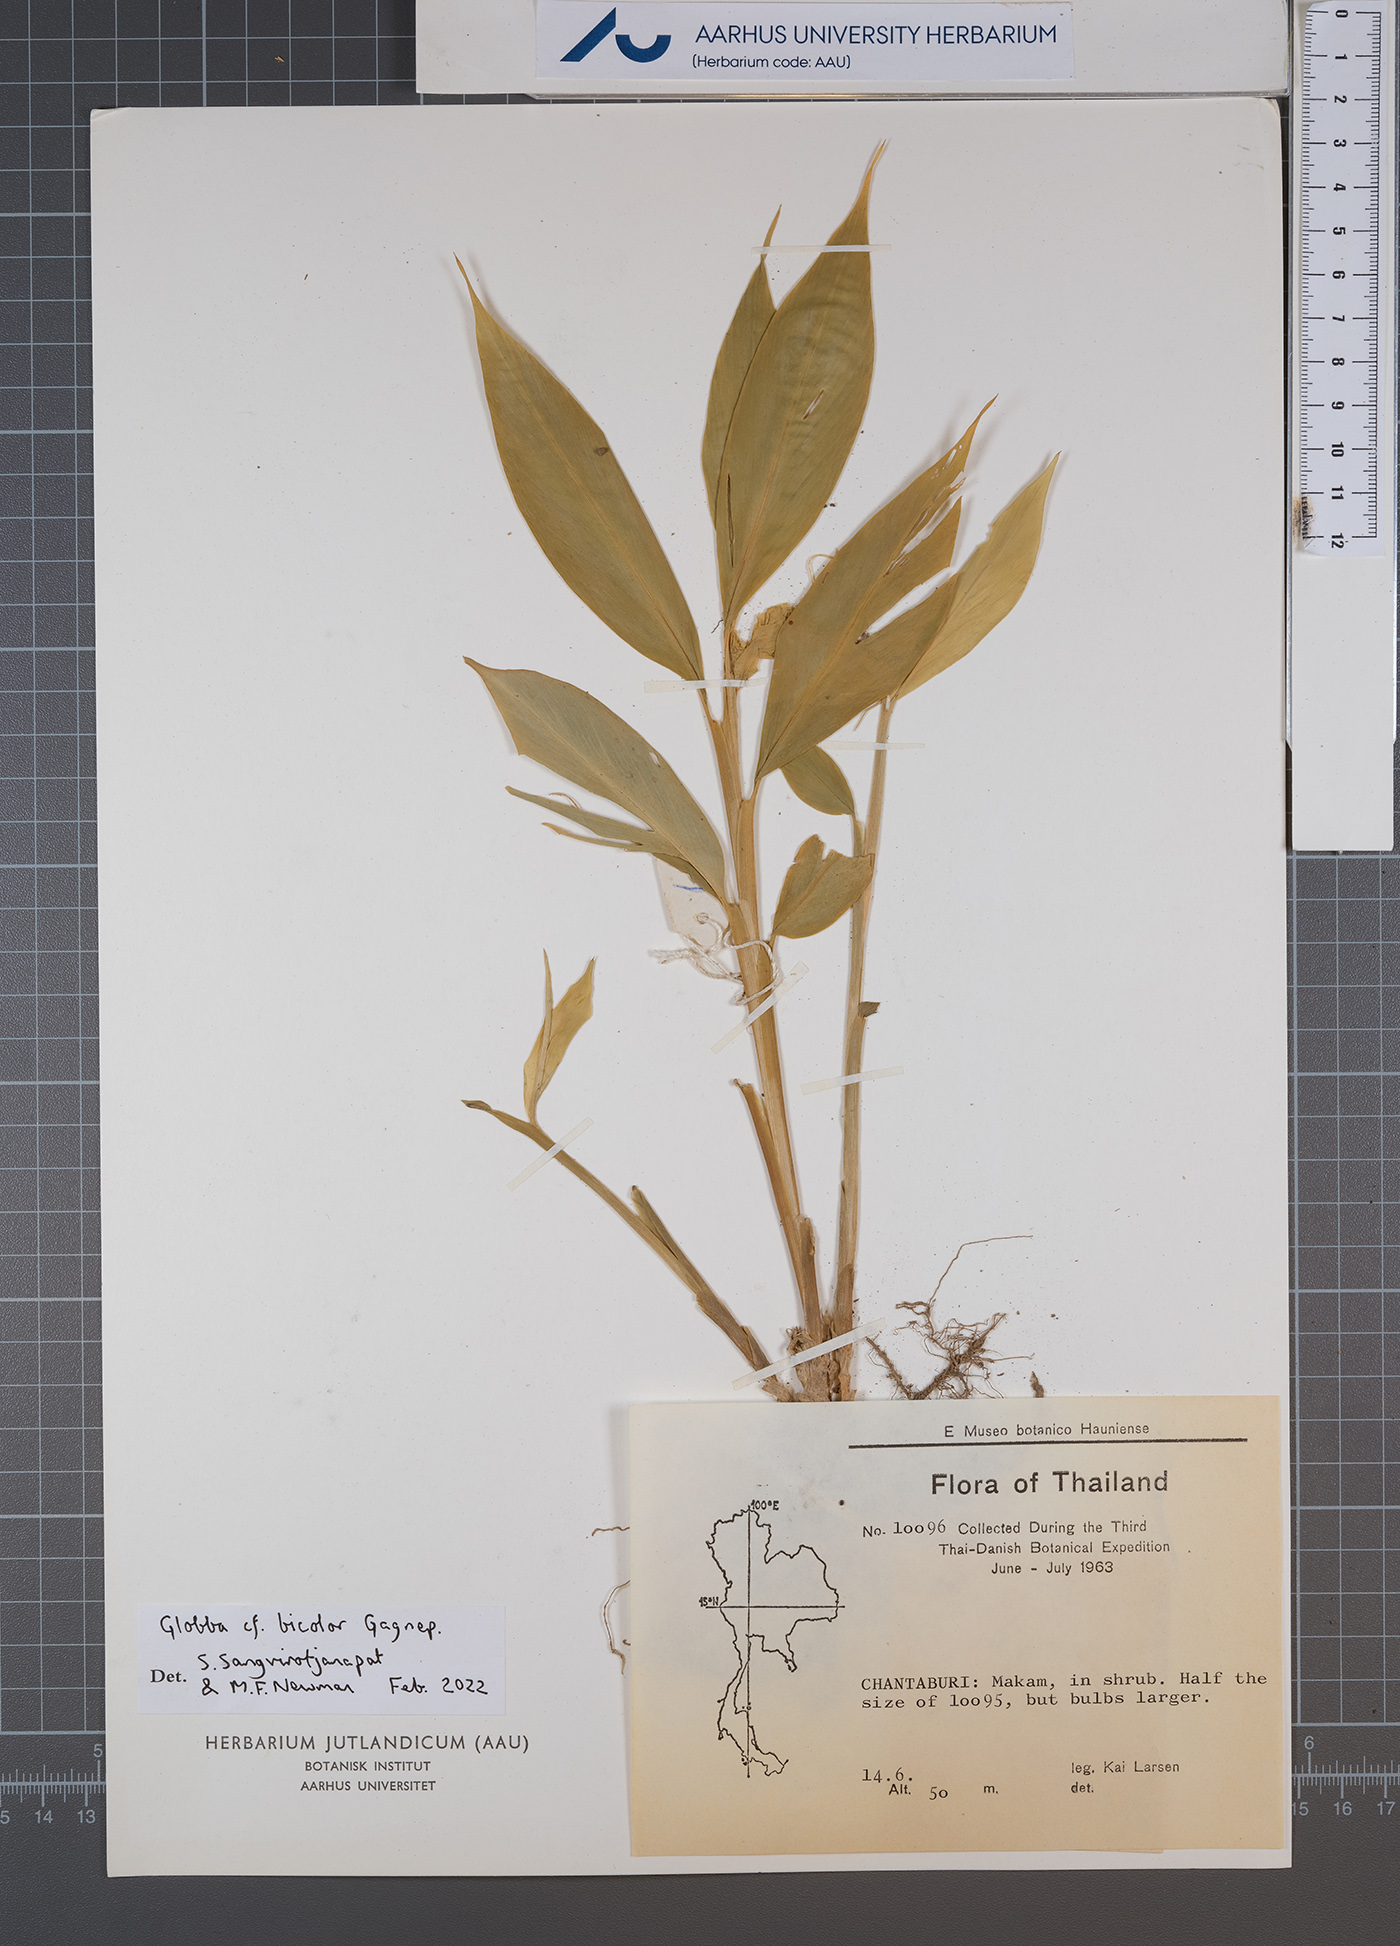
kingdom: Plantae
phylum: Tracheophyta
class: Liliopsida
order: Zingiberales
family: Zingiberaceae
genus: Globba
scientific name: Globba bicolor
